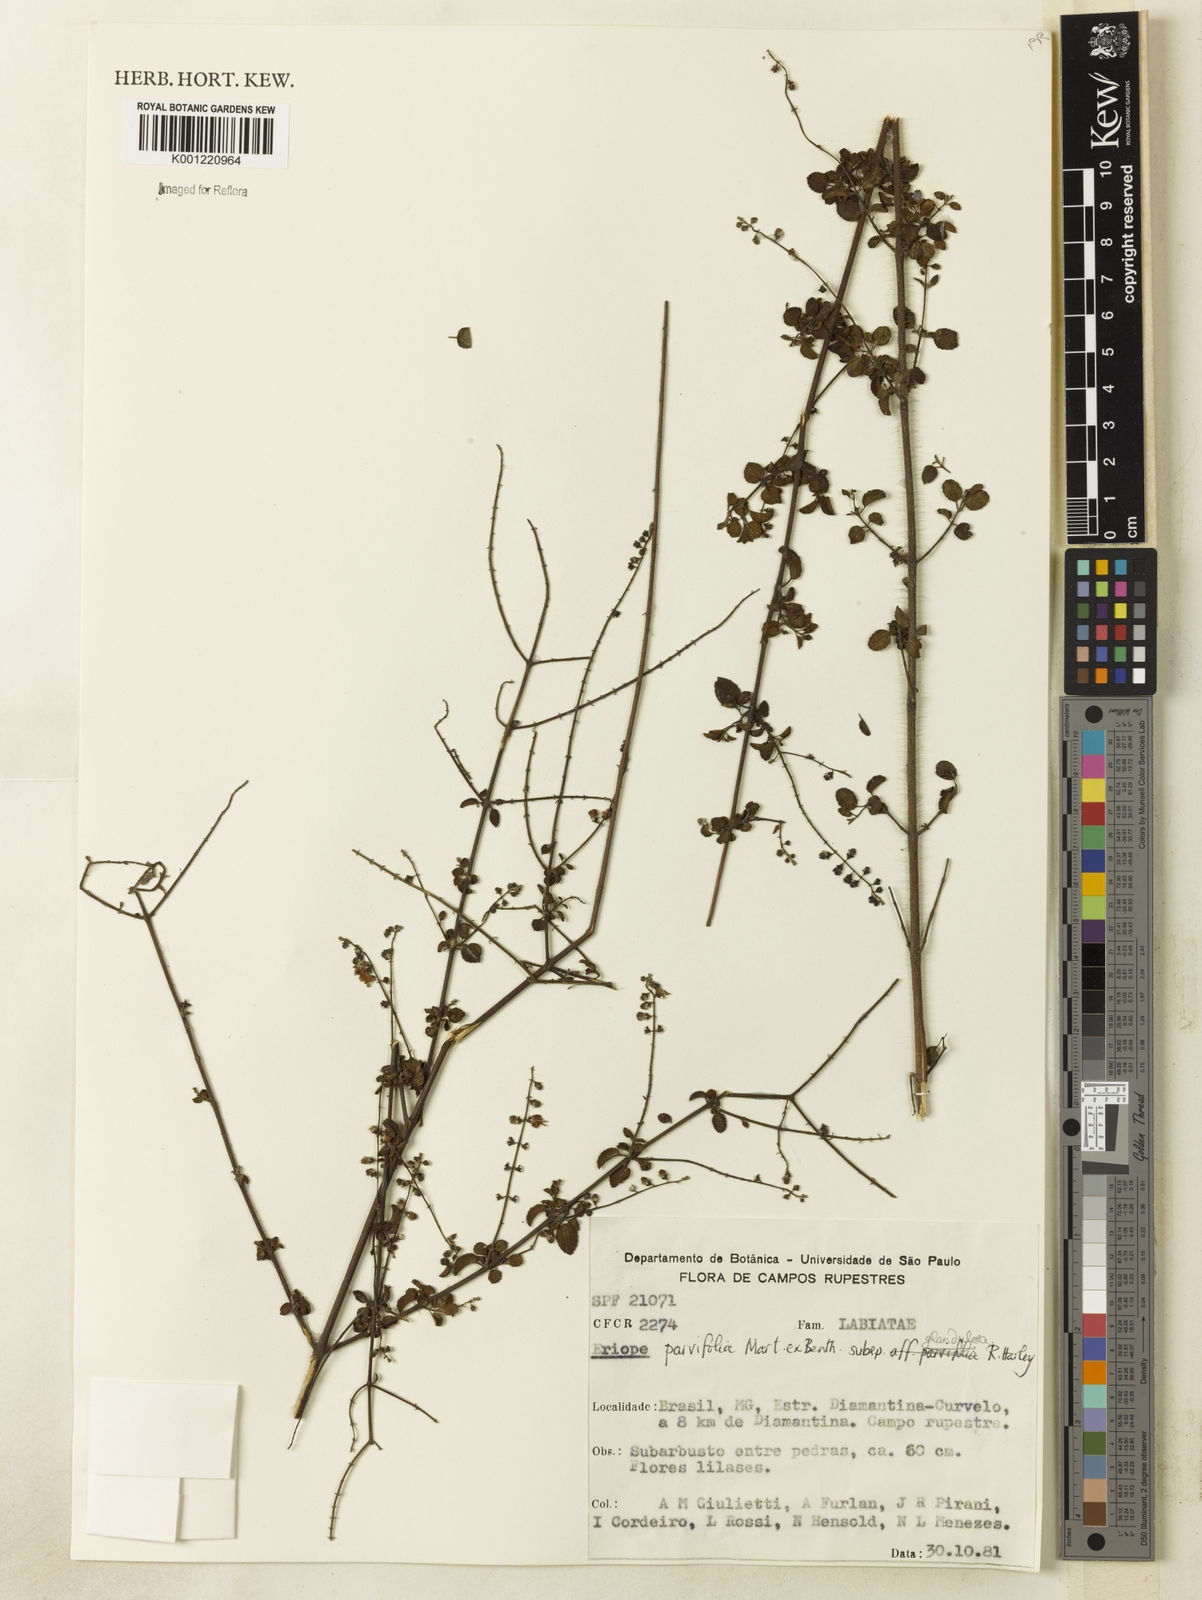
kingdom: Plantae
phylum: Tracheophyta
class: Magnoliopsida
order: Lamiales
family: Lamiaceae
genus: Eriope
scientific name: Eriope glandulosa
